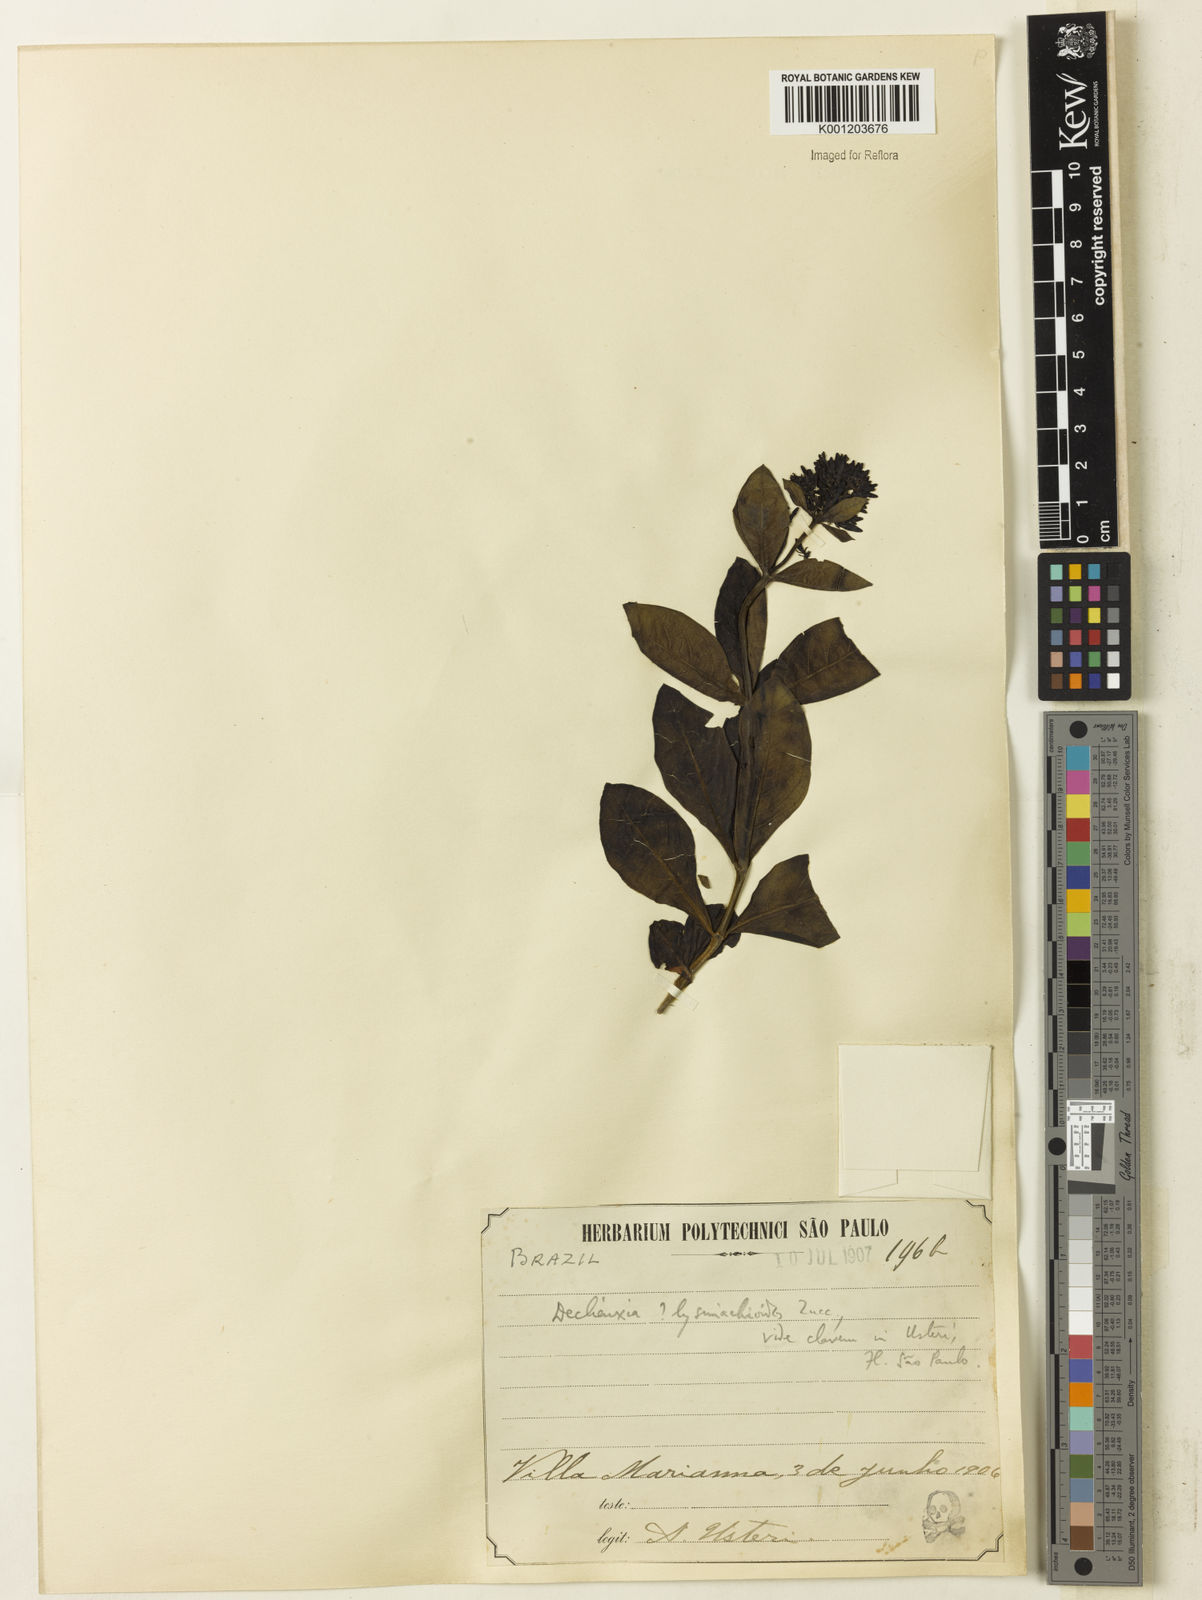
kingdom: Plantae
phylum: Tracheophyta
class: Magnoliopsida
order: Gentianales
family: Rubiaceae
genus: Declieuxia
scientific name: Declieuxia
